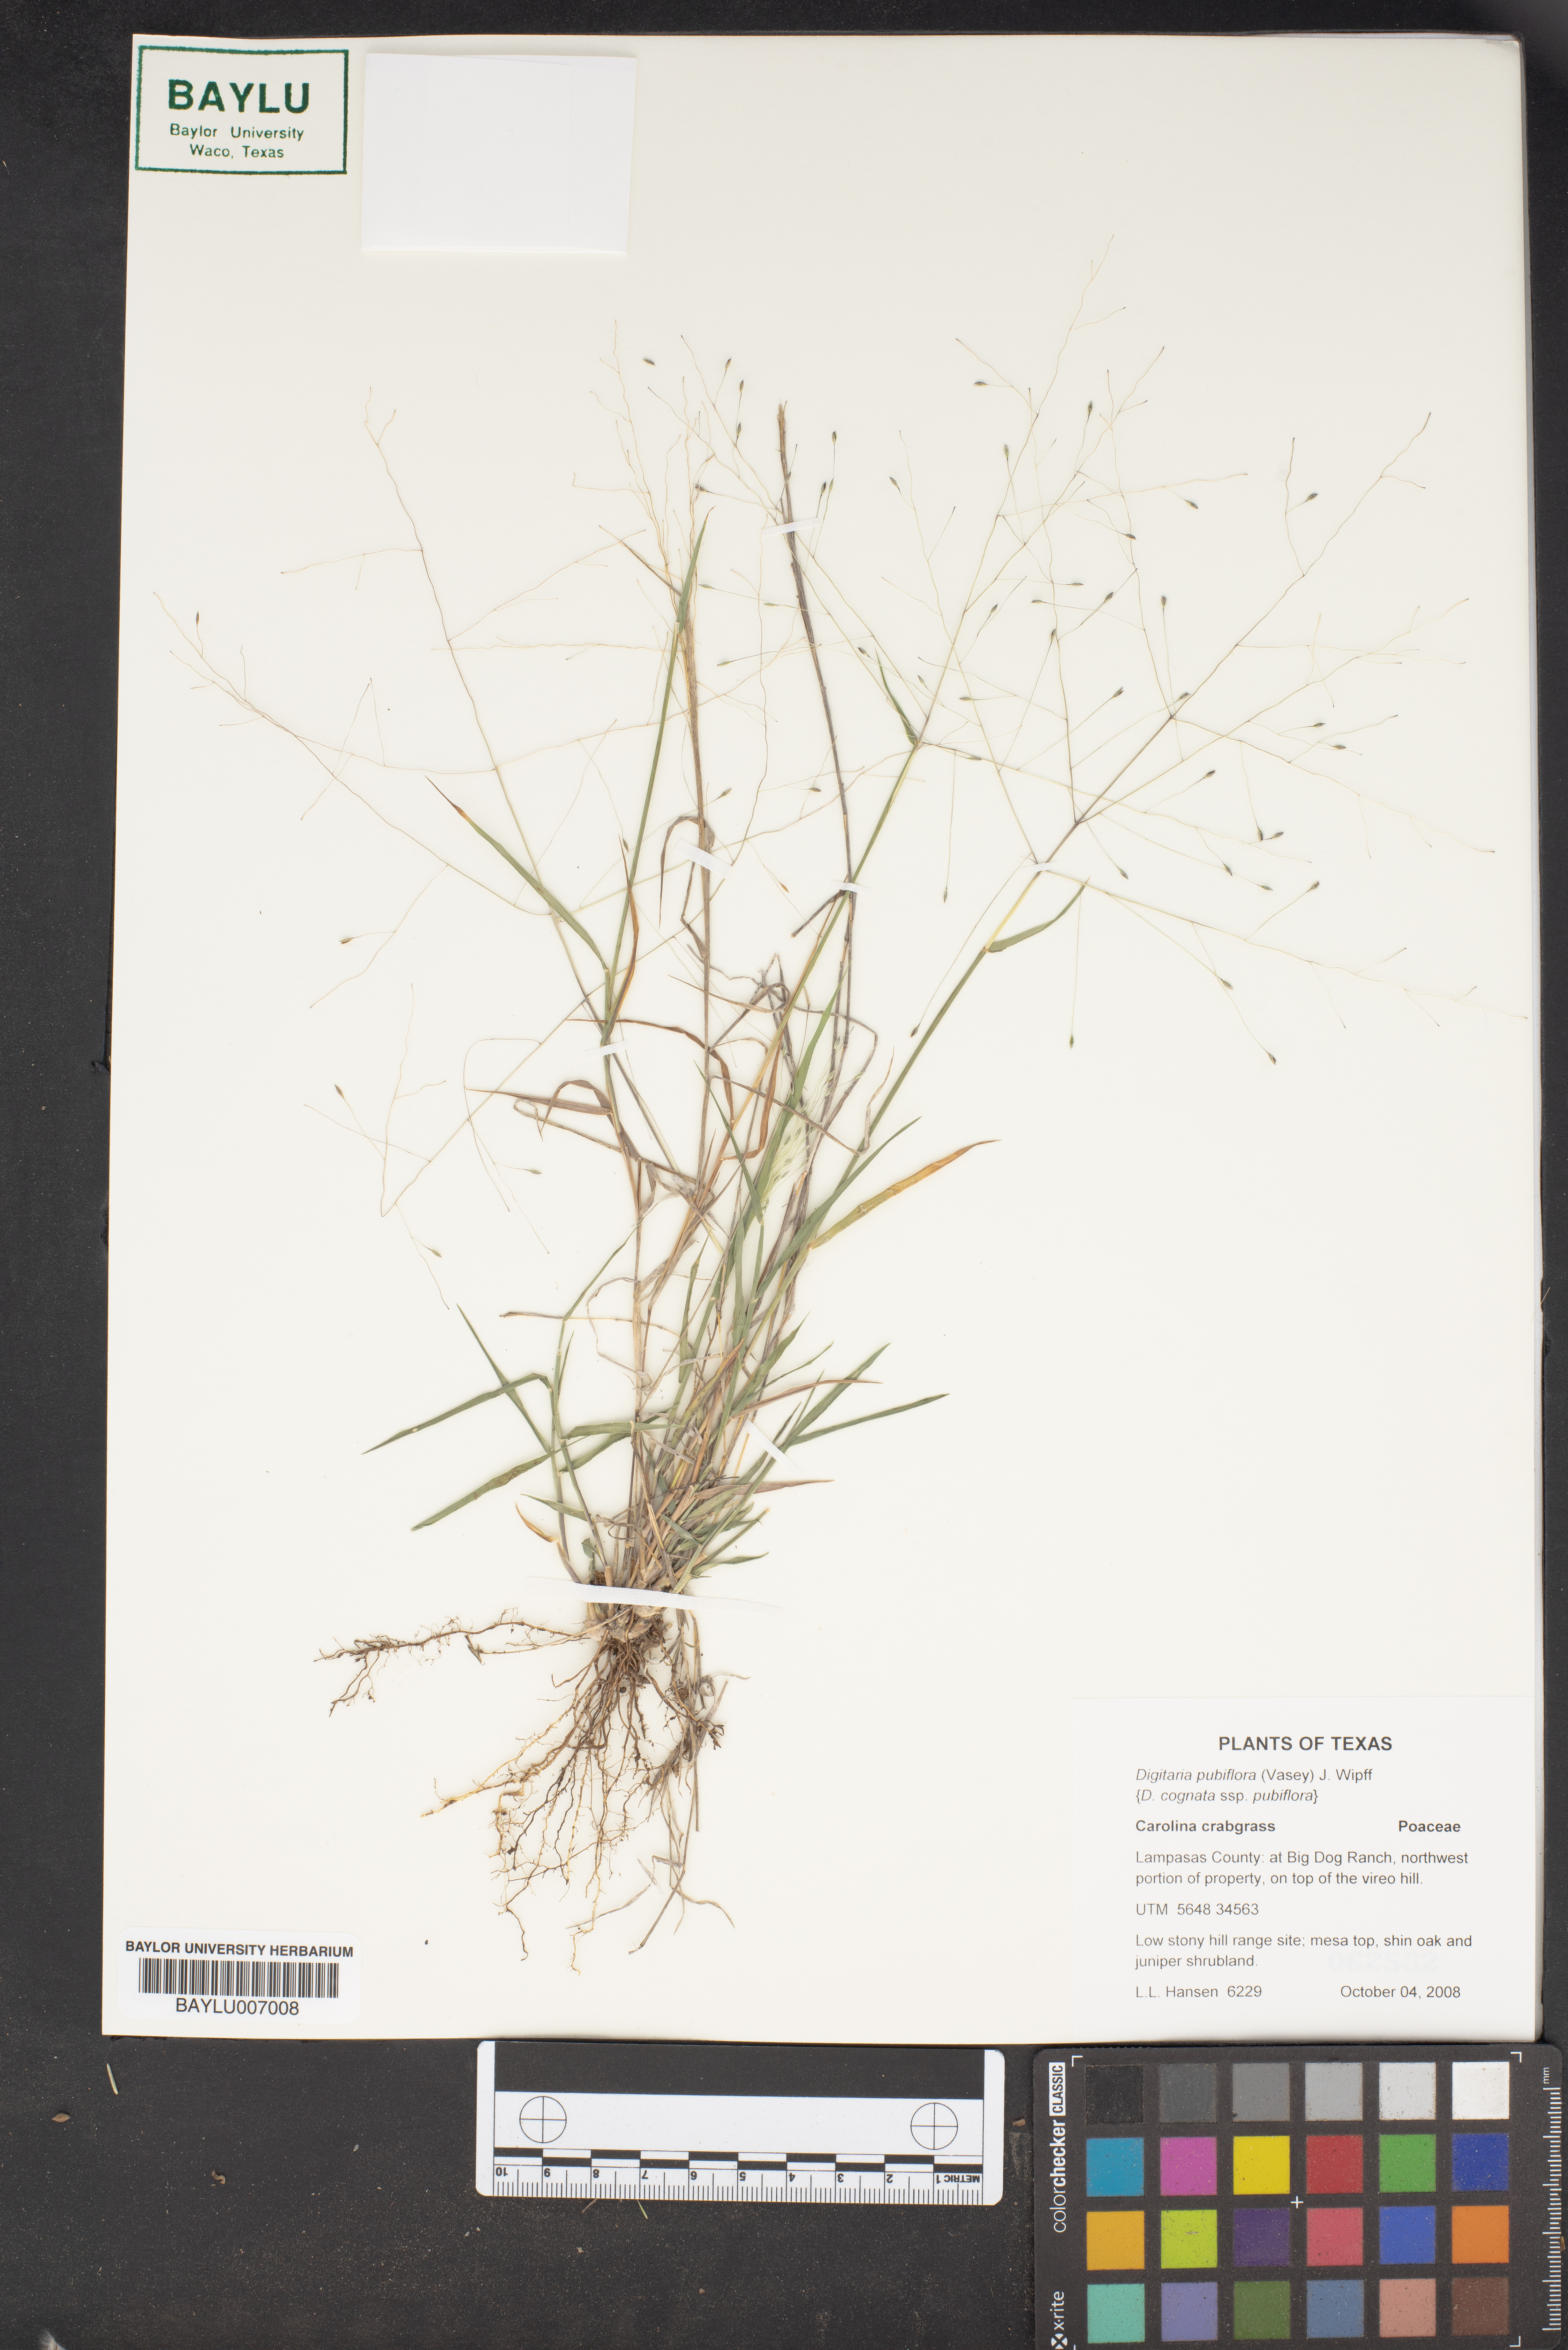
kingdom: Plantae
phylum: Tracheophyta
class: Liliopsida
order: Poales
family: Poaceae
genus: Digitaria
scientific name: Digitaria pubiflora
